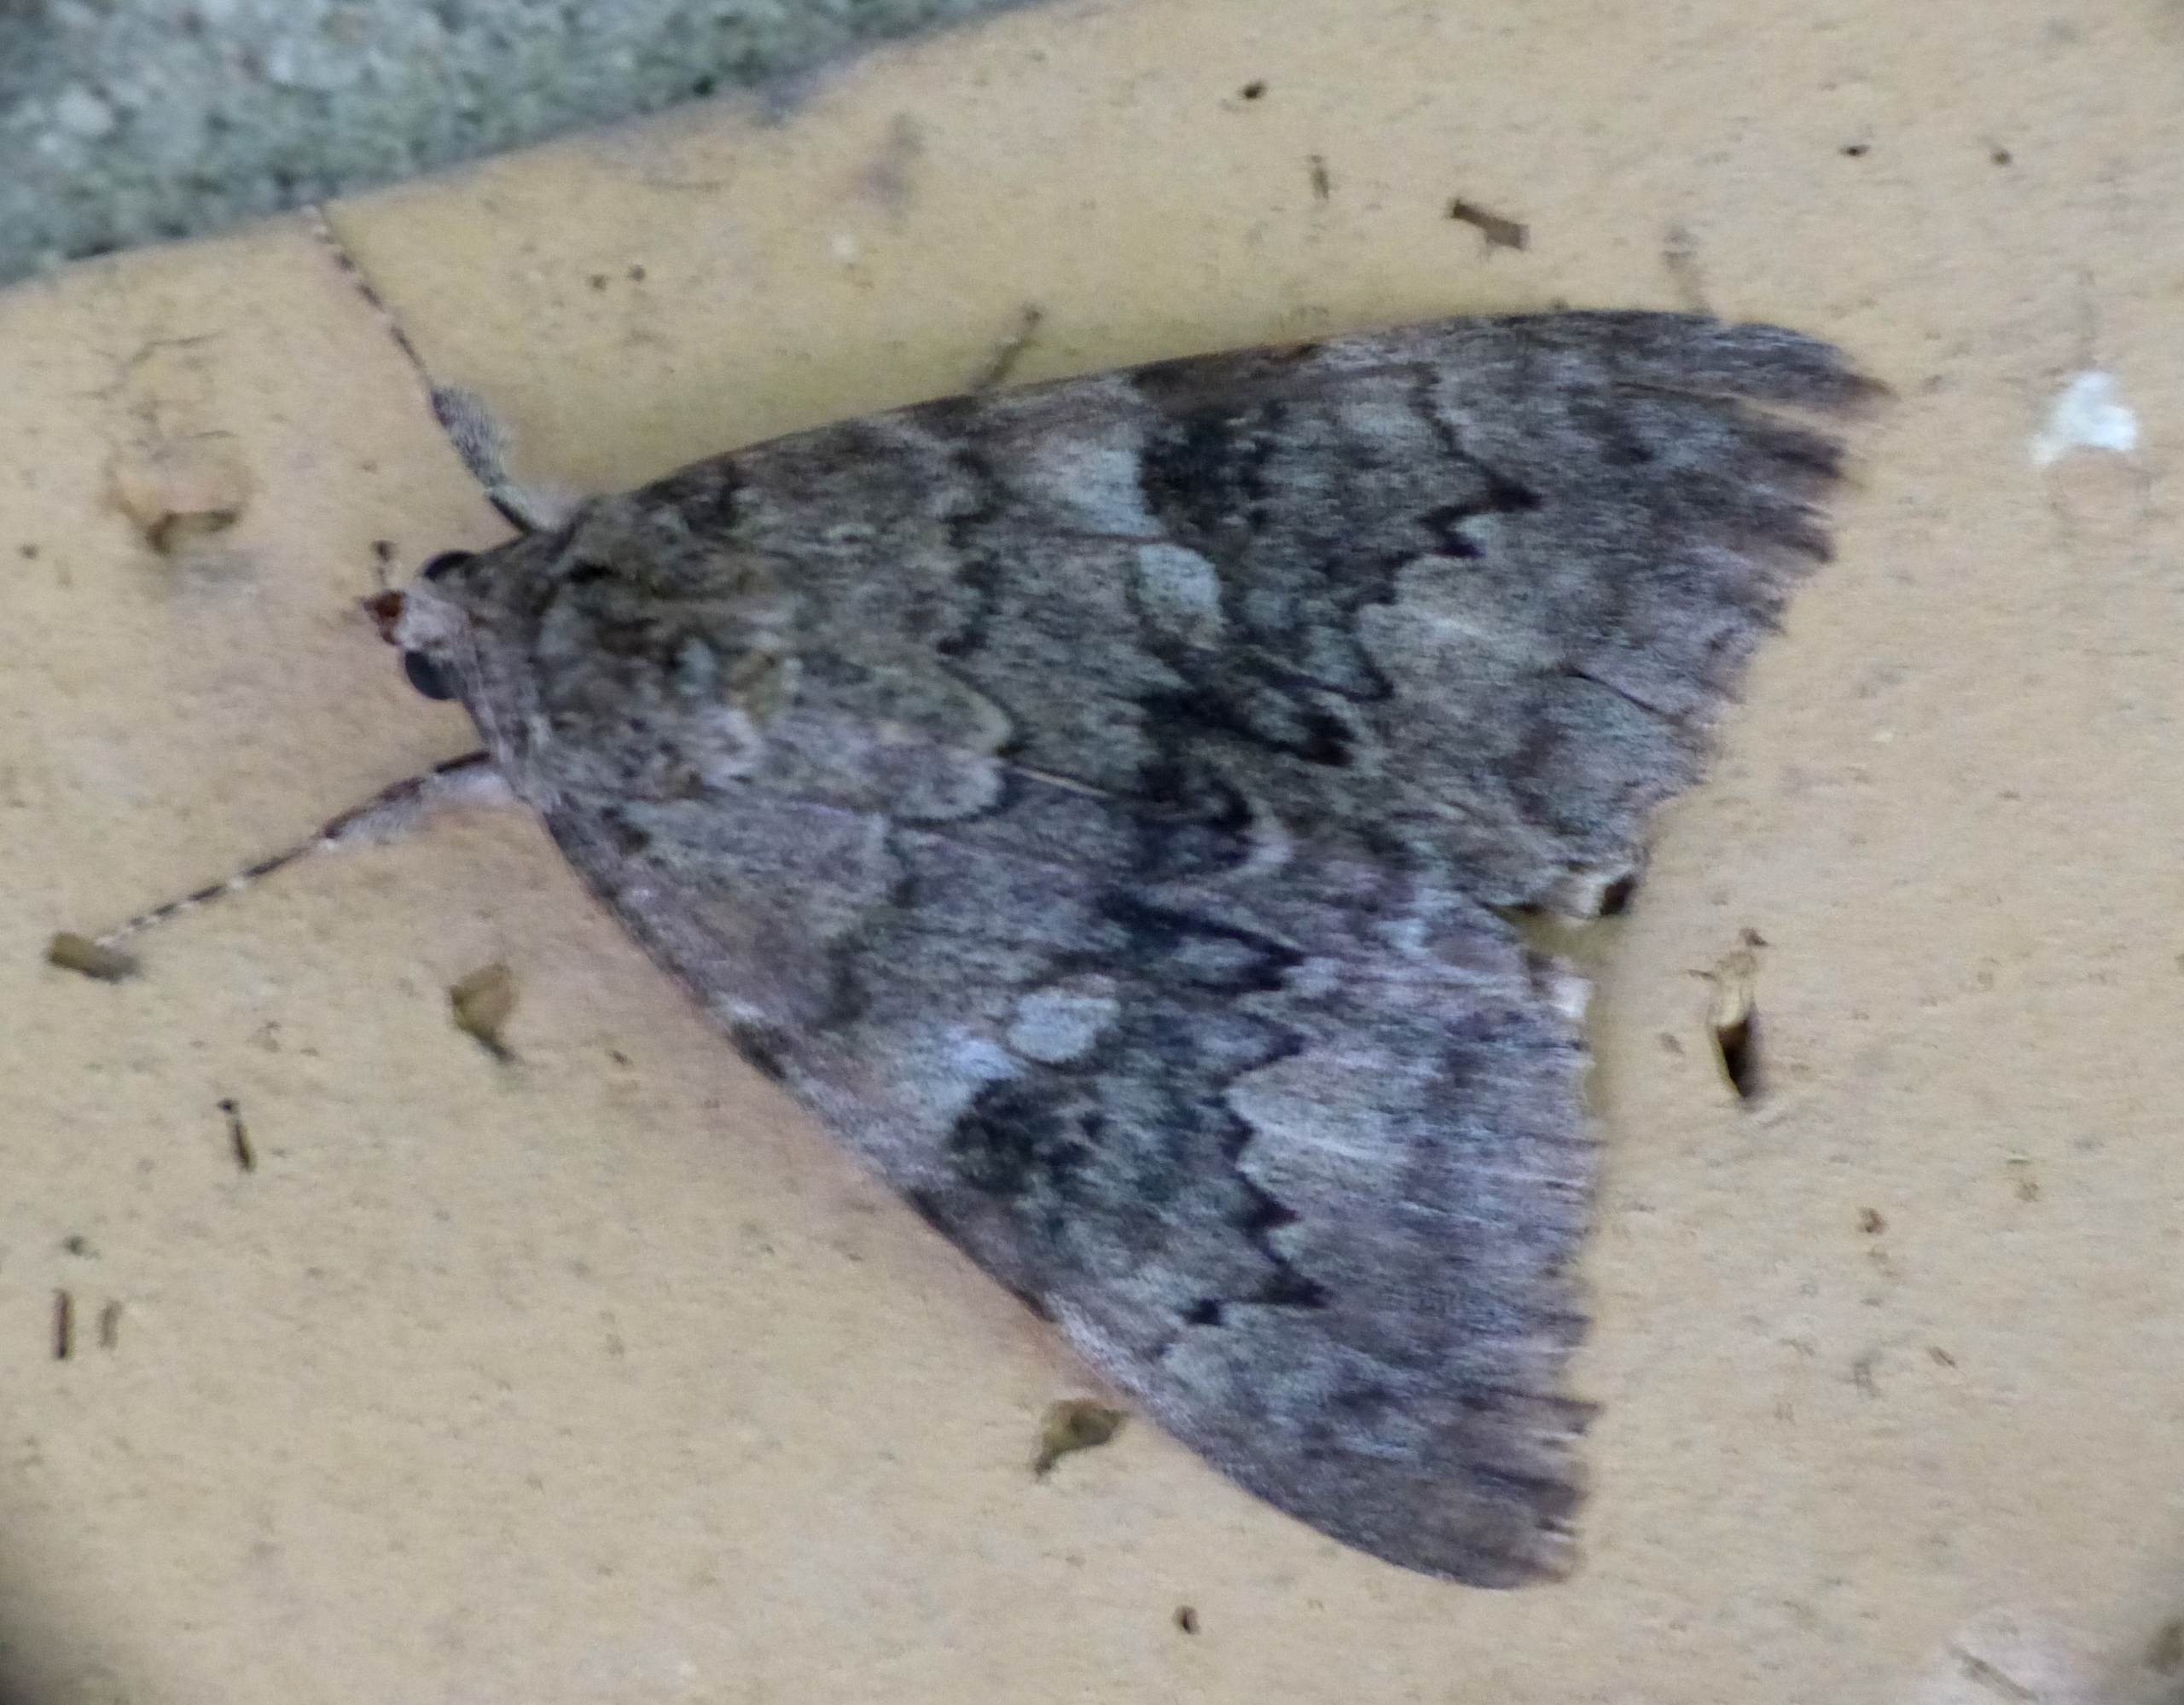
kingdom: Animalia
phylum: Arthropoda
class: Insecta
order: Lepidoptera
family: Erebidae
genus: Catocala
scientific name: Catocala nupta
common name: Rødt ordensbånd
